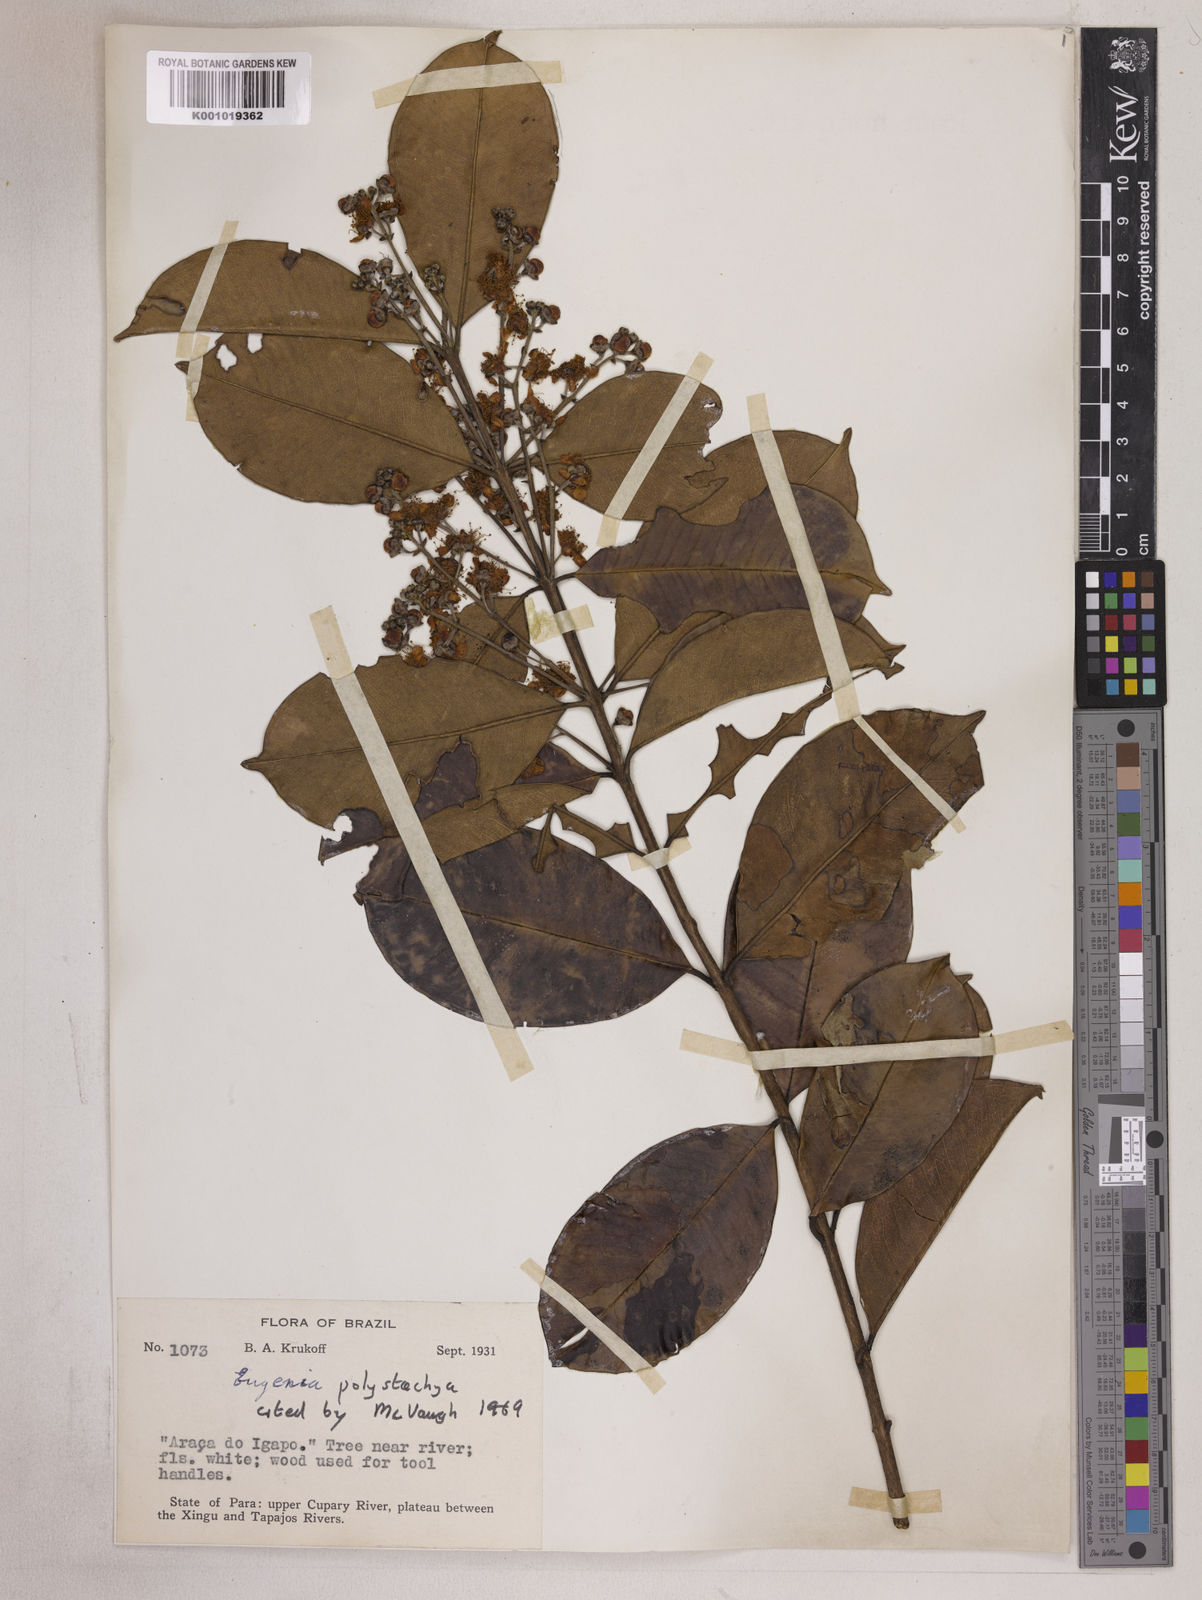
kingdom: Plantae
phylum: Tracheophyta
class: Magnoliopsida
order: Myrtales
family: Myrtaceae
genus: Eugenia
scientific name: Eugenia polystachya
